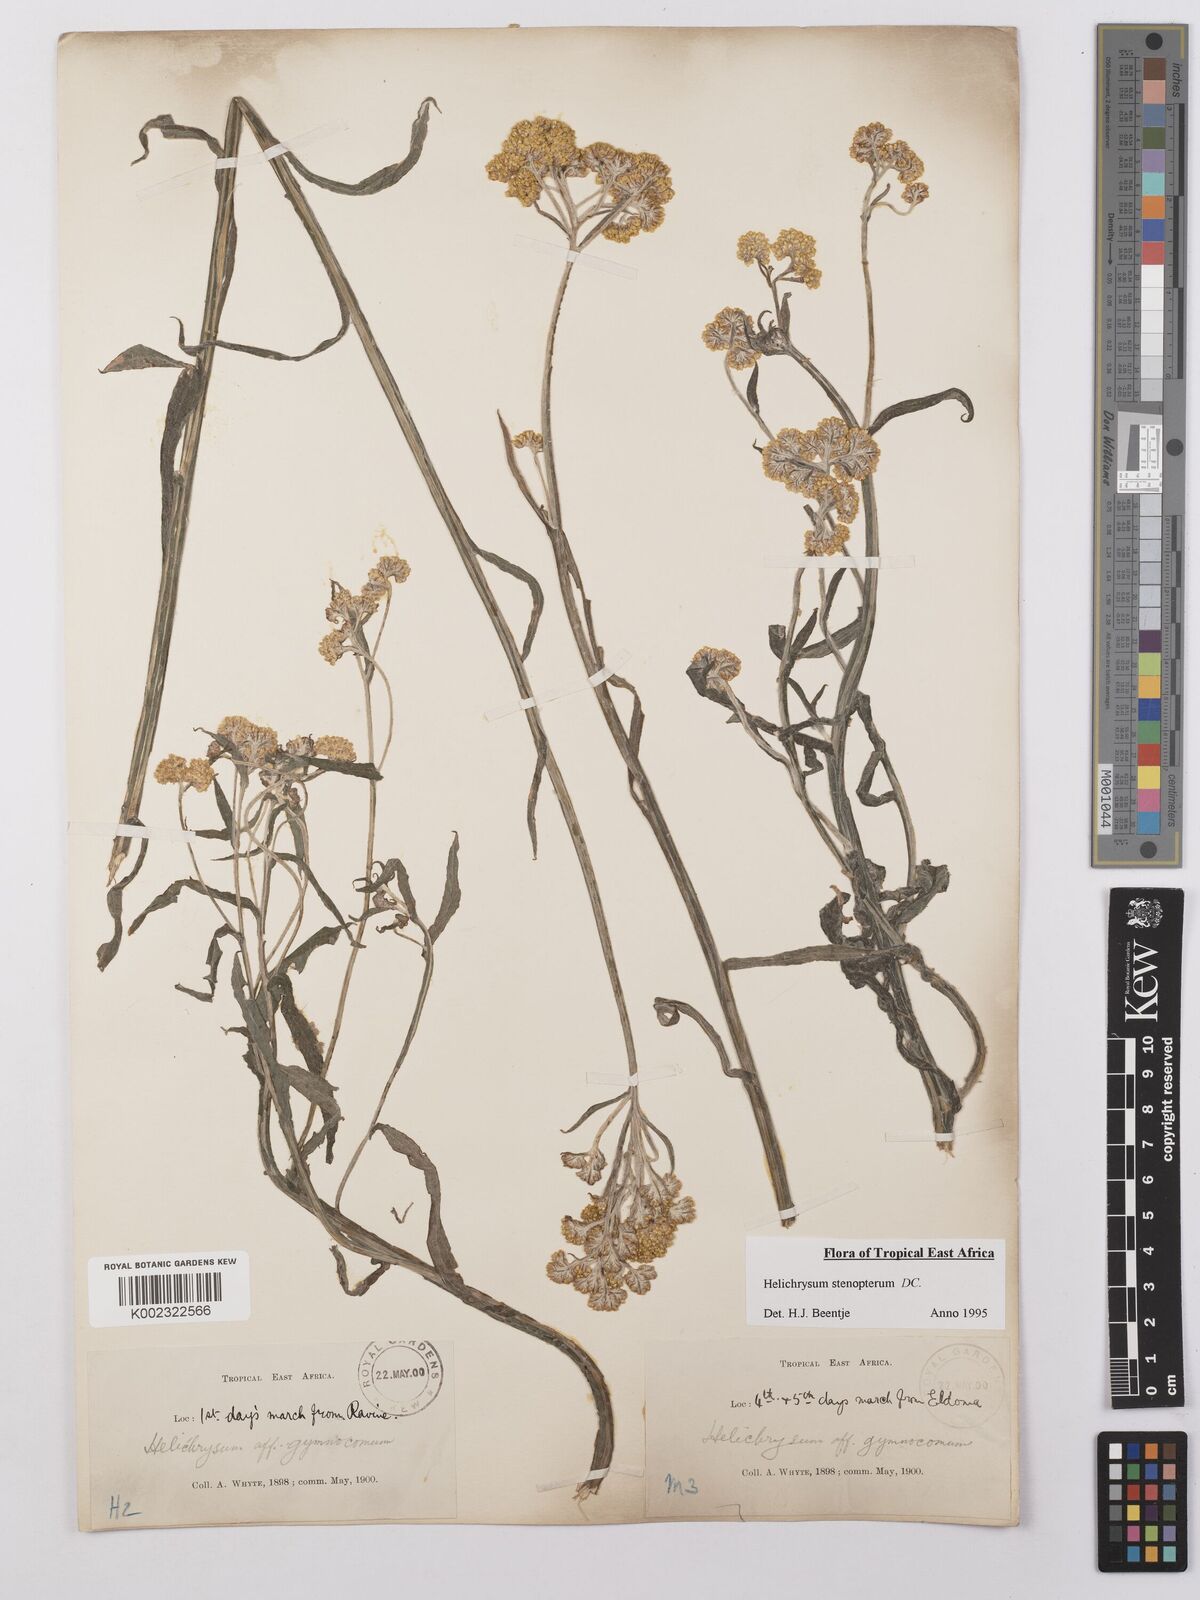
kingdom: Plantae
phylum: Tracheophyta
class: Magnoliopsida
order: Asterales
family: Asteraceae
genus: Helichrysum
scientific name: Helichrysum stenopterum
